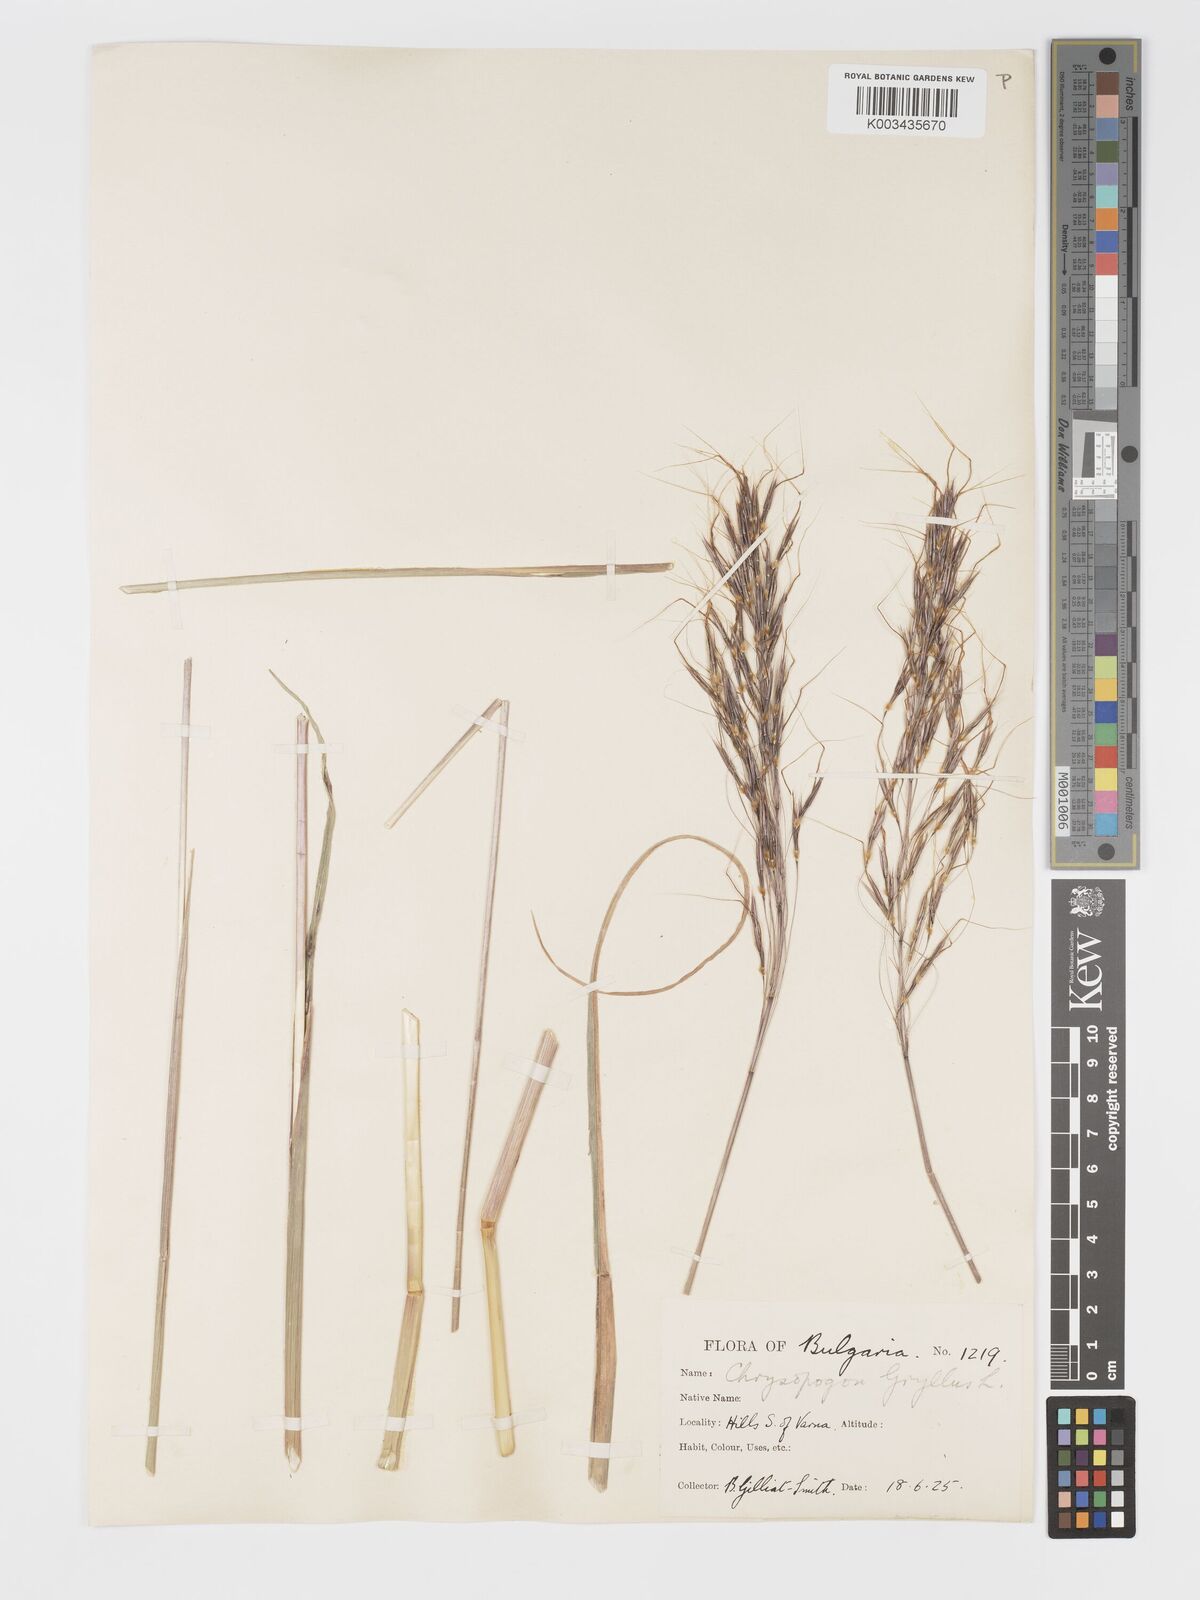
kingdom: Plantae
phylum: Tracheophyta
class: Liliopsida
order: Poales
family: Poaceae
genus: Chrysopogon
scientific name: Chrysopogon gryllus
